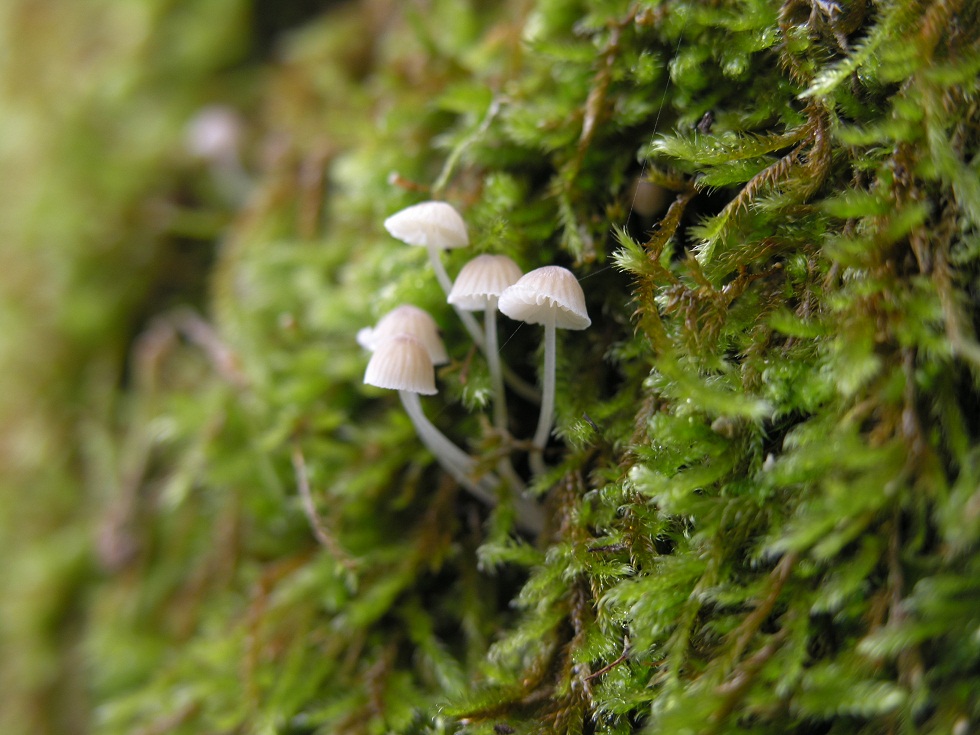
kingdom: Fungi
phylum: Basidiomycota
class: Agaricomycetes
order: Agaricales
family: Porotheleaceae
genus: Phloeomana
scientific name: Phloeomana hiemalis
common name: sen huesvamp
